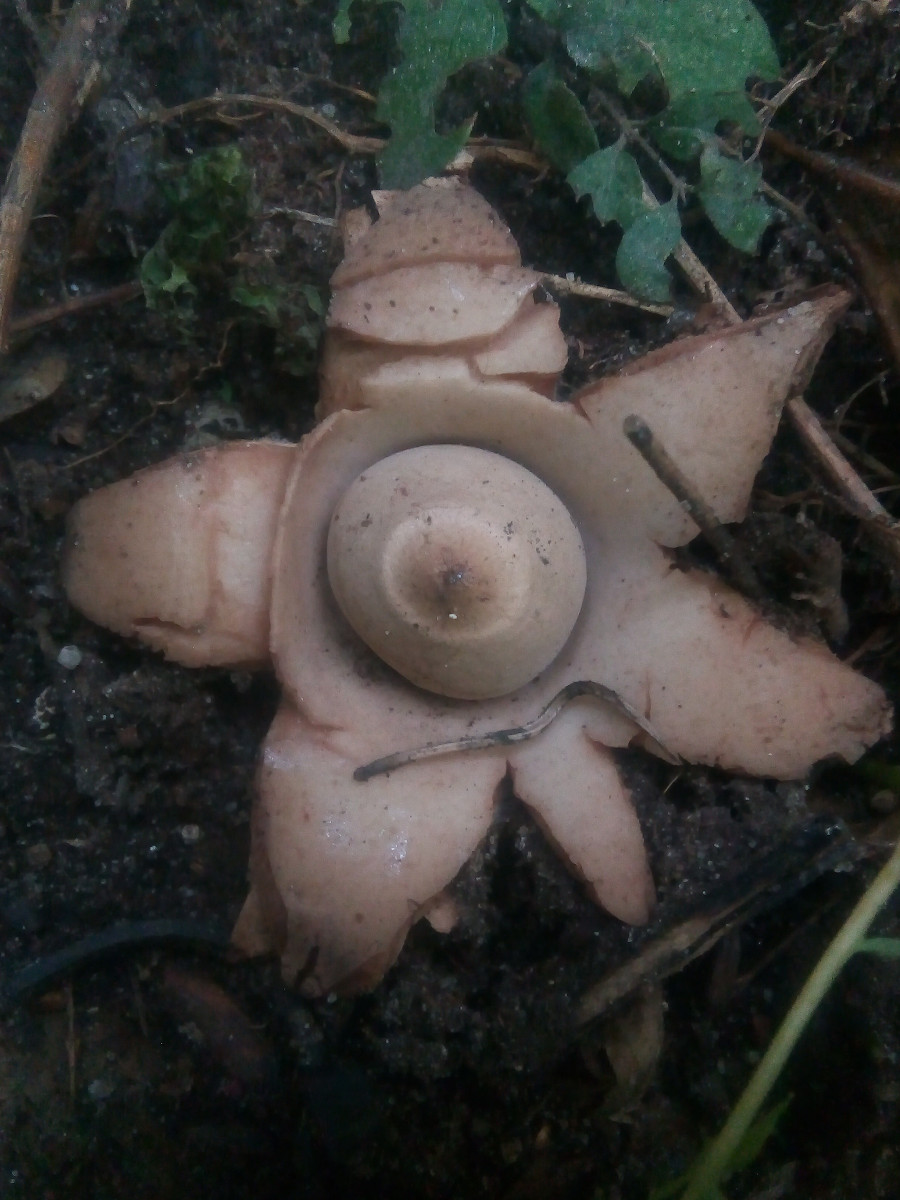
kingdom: Fungi
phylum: Basidiomycota
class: Agaricomycetes
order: Geastrales
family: Geastraceae
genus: Geastrum
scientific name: Geastrum michelianum
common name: kødet stjernebold
